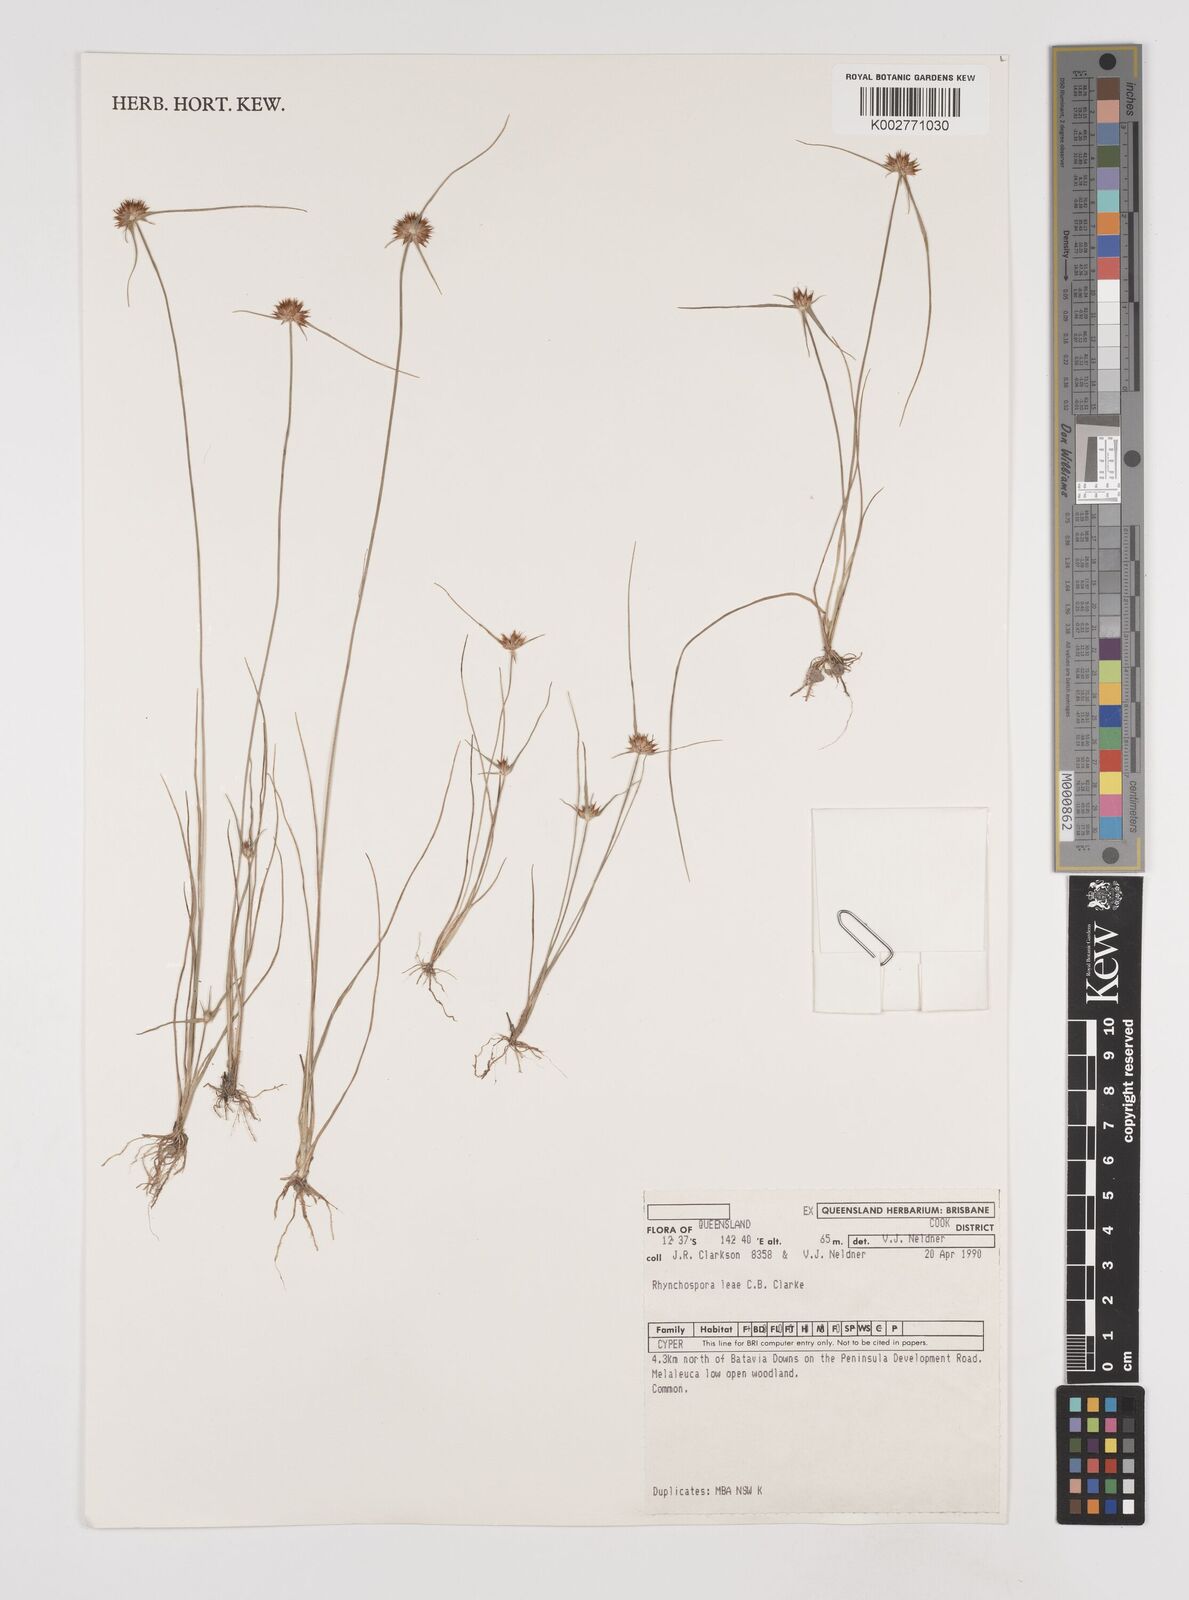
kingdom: Plantae
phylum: Tracheophyta
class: Liliopsida
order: Poales
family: Cyperaceae
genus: Rhynchospora
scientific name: Rhynchospora leae
